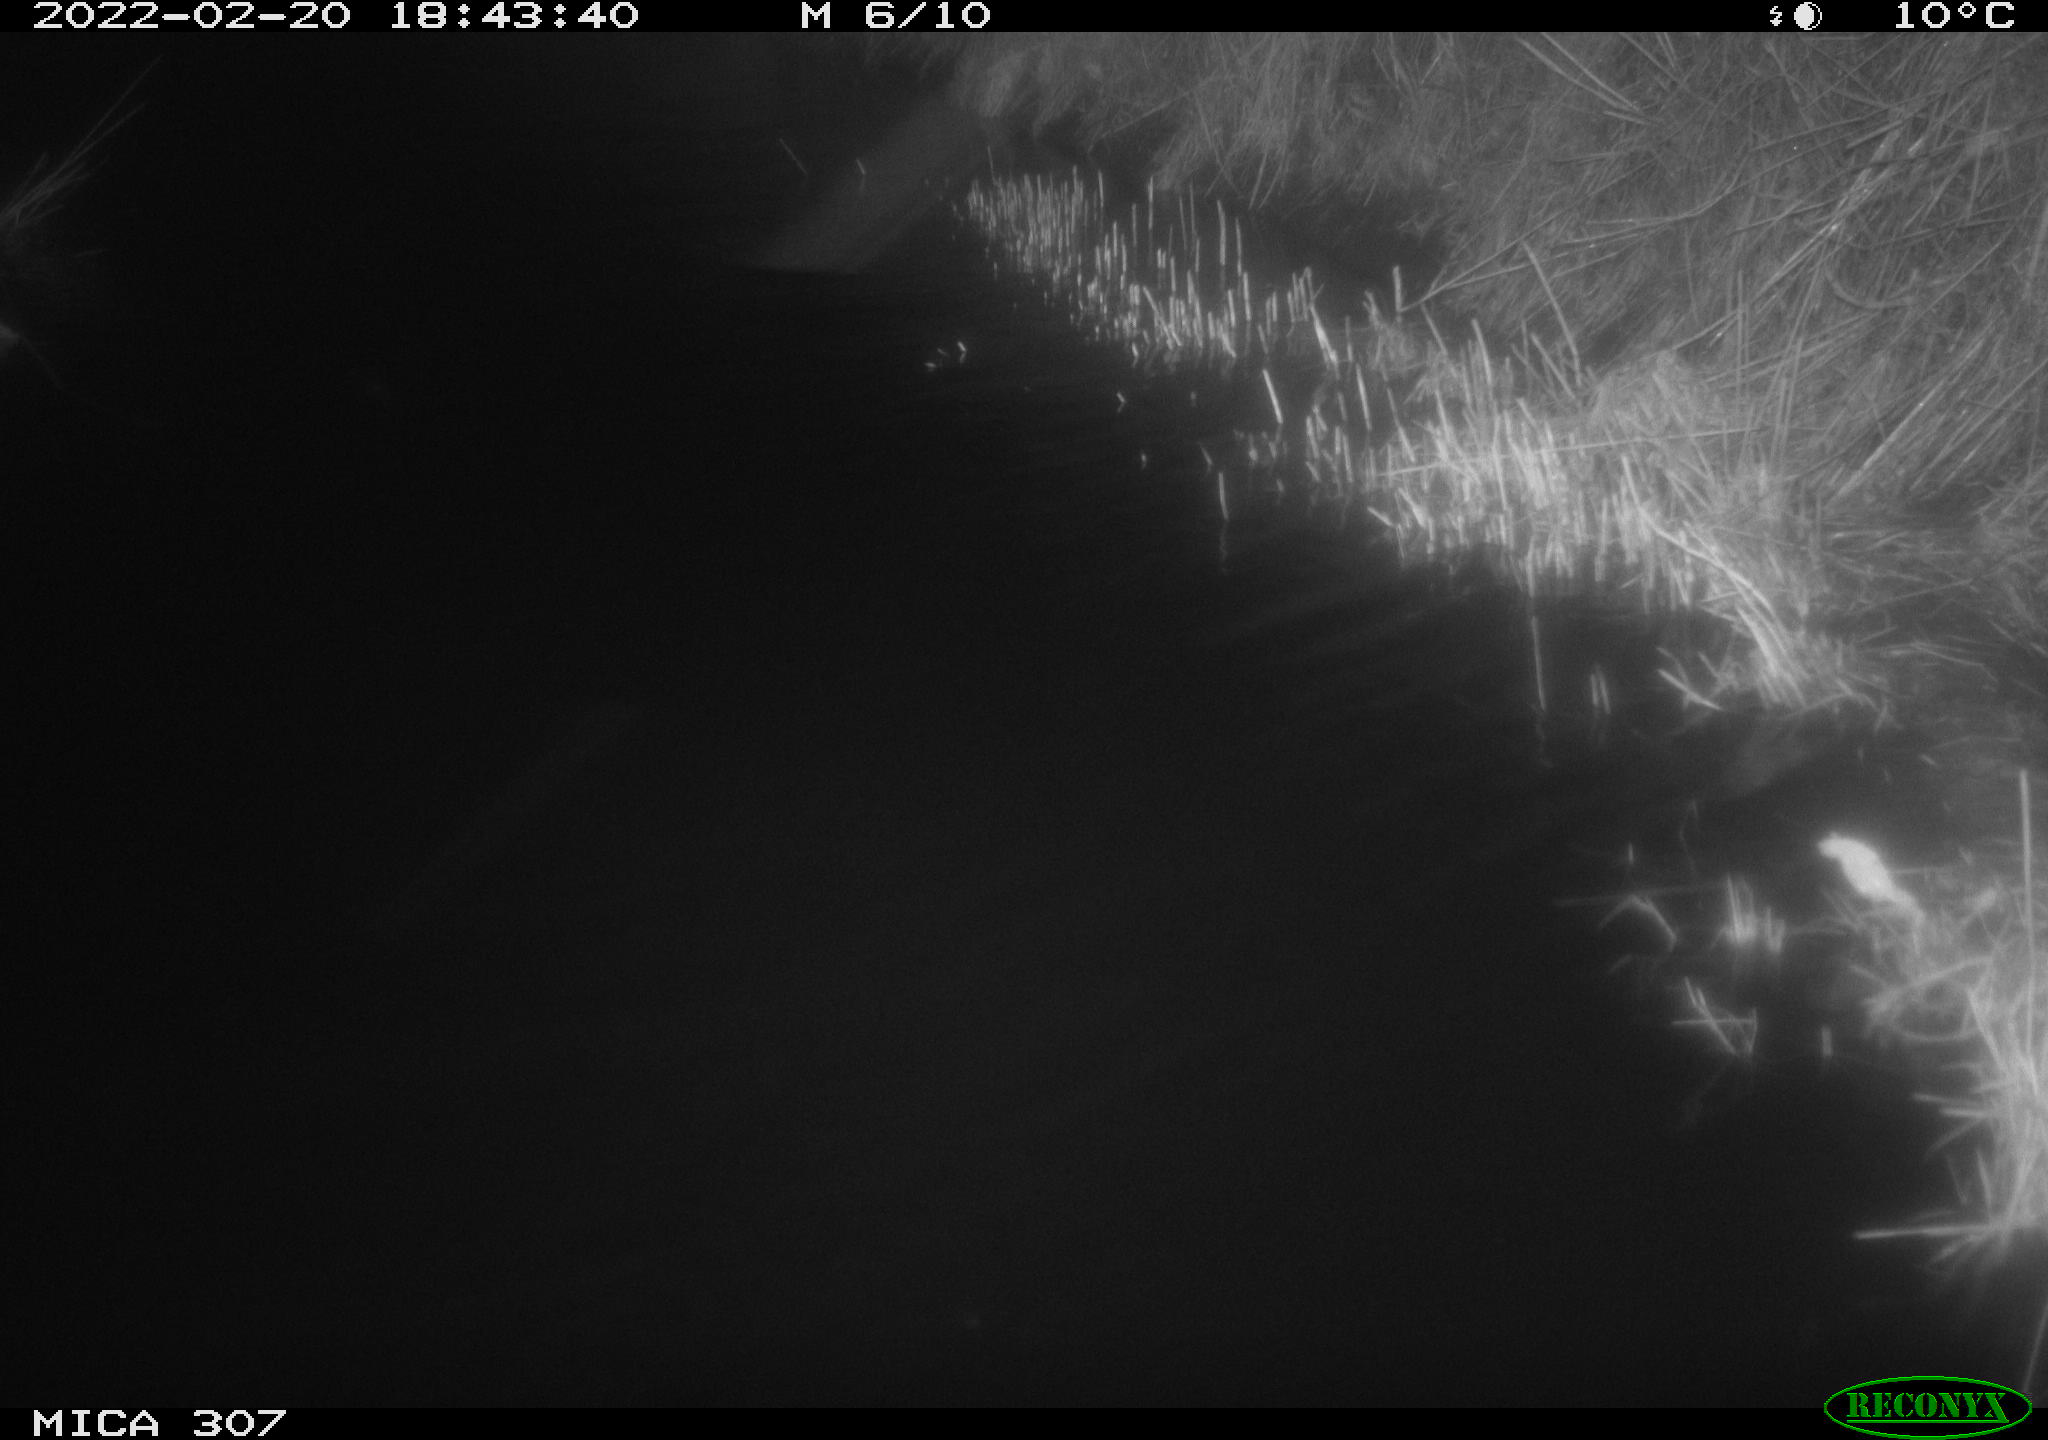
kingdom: Animalia
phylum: Chordata
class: Mammalia
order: Rodentia
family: Muridae
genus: Rattus
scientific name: Rattus norvegicus
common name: Brown rat
